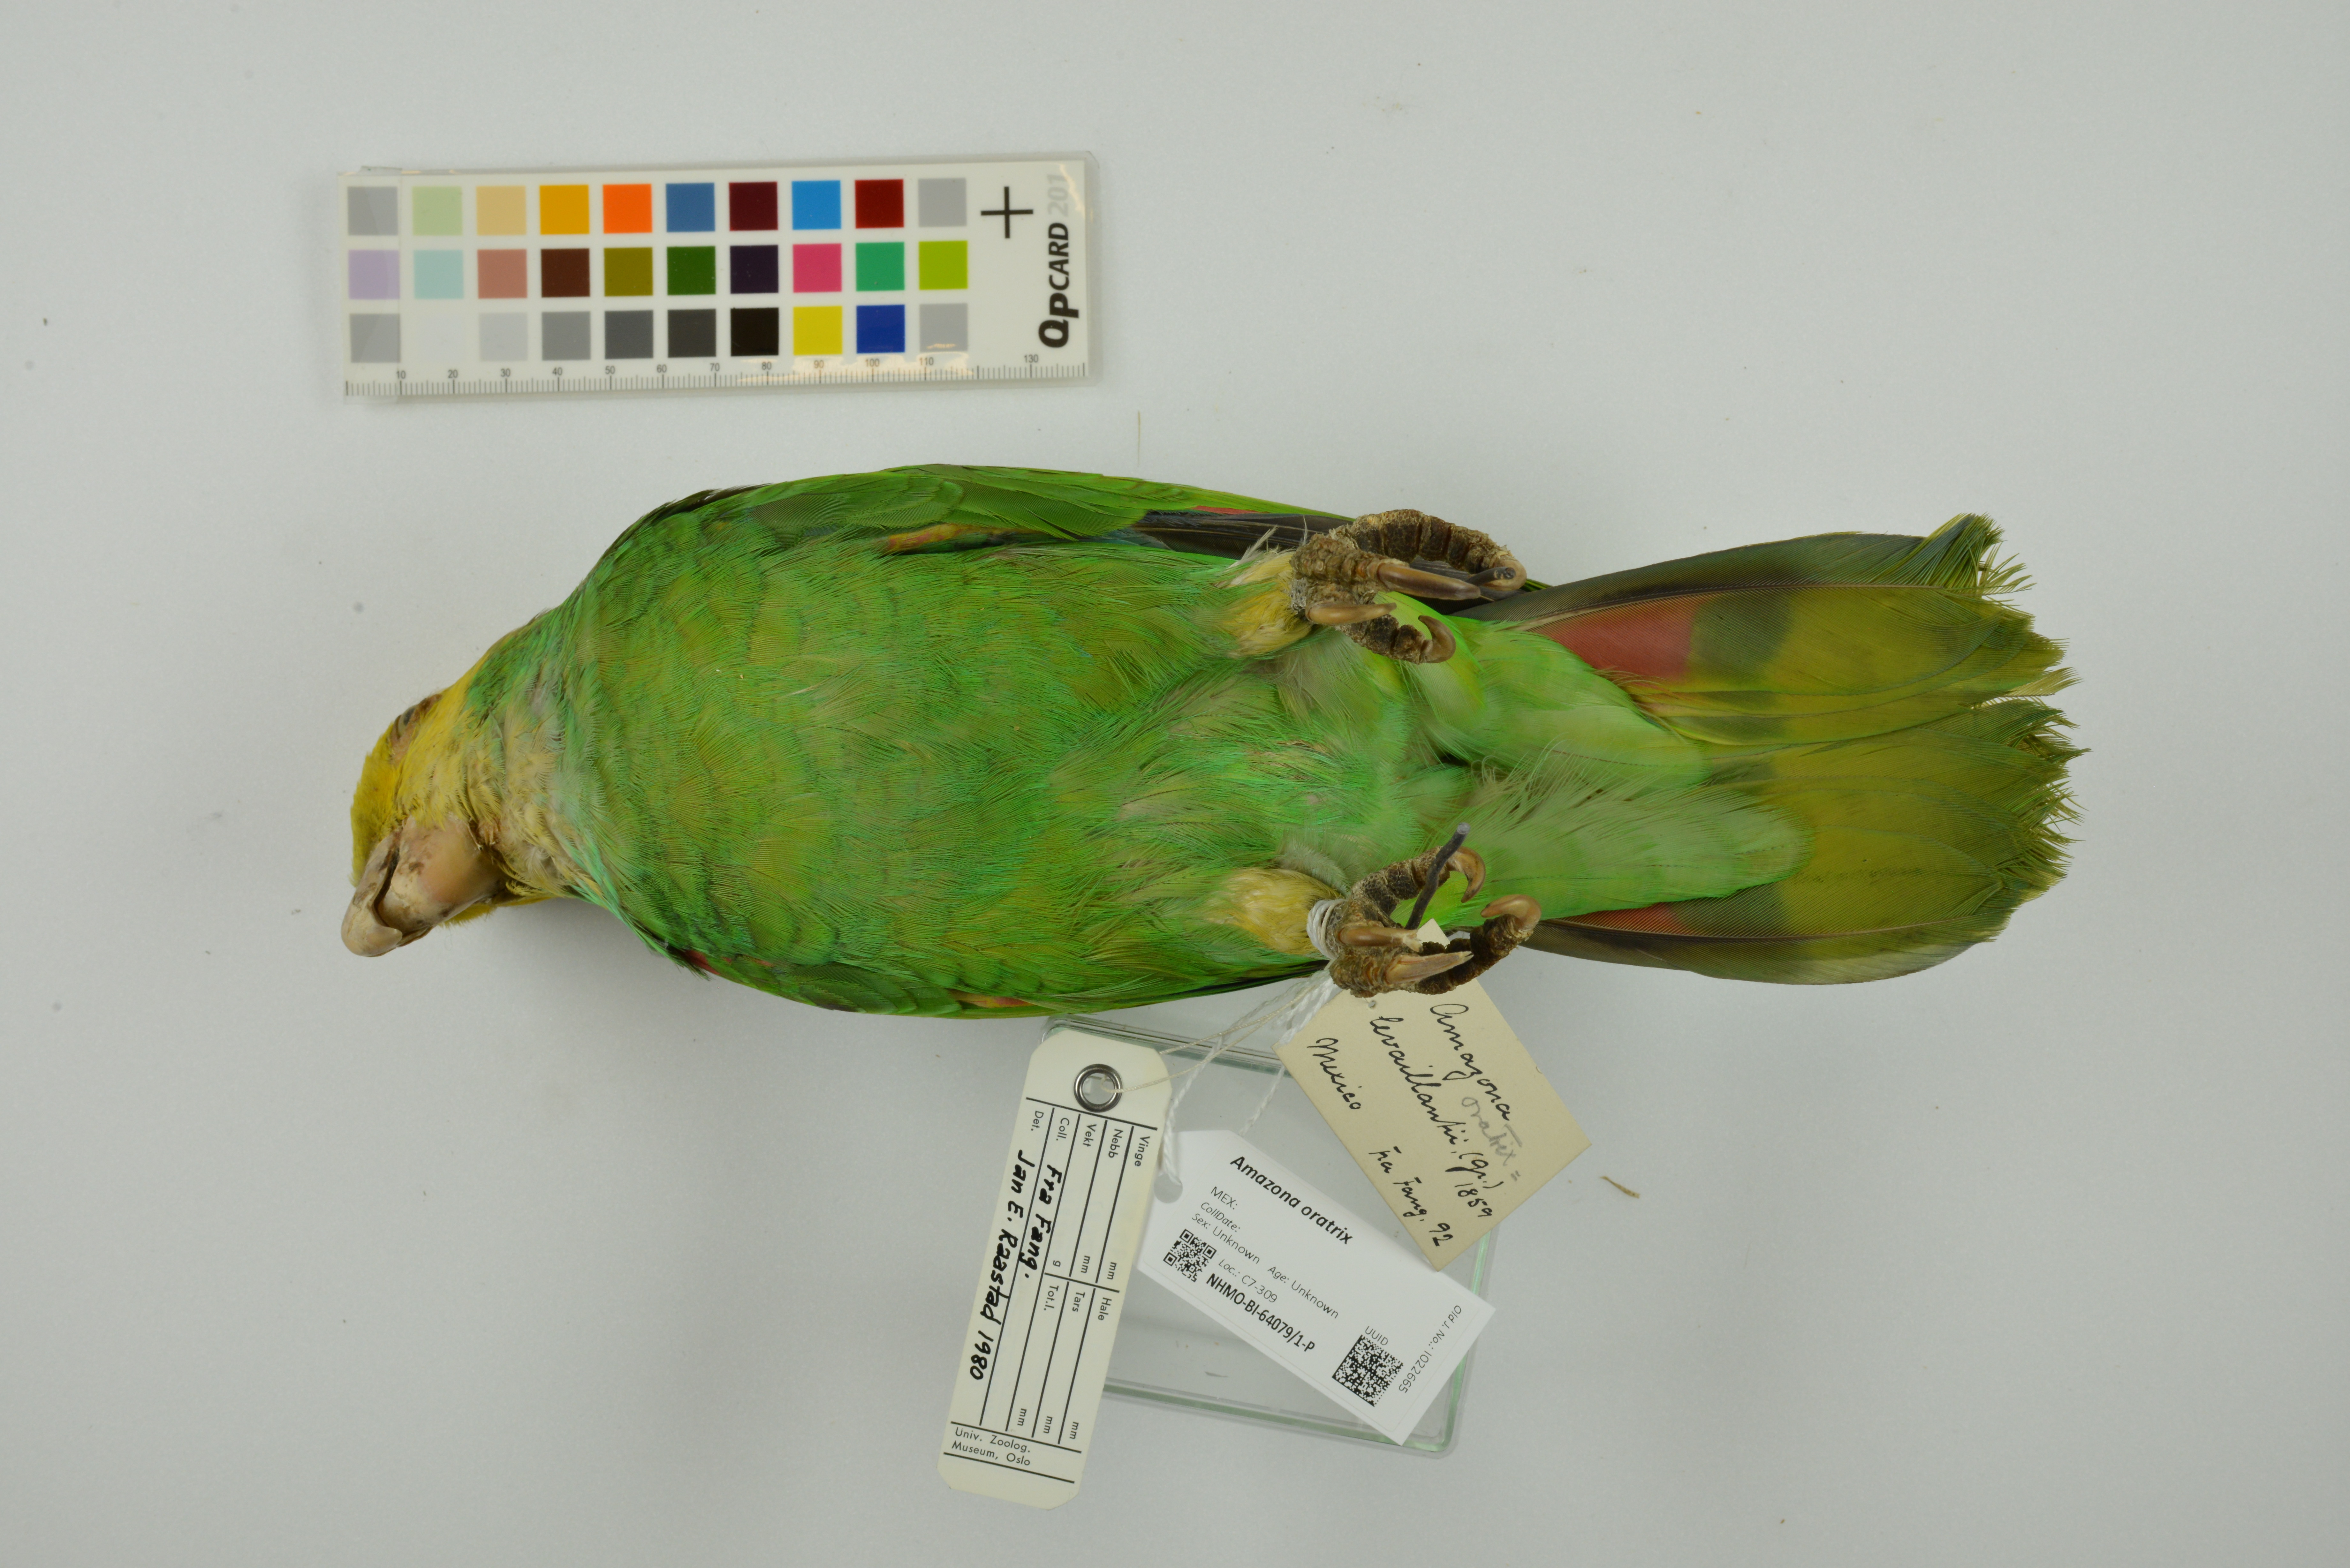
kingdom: Animalia
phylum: Chordata
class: Aves
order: Psittaciformes
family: Psittacidae
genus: Amazona
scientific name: Amazona oratrix
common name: Yellow-headed amazon
